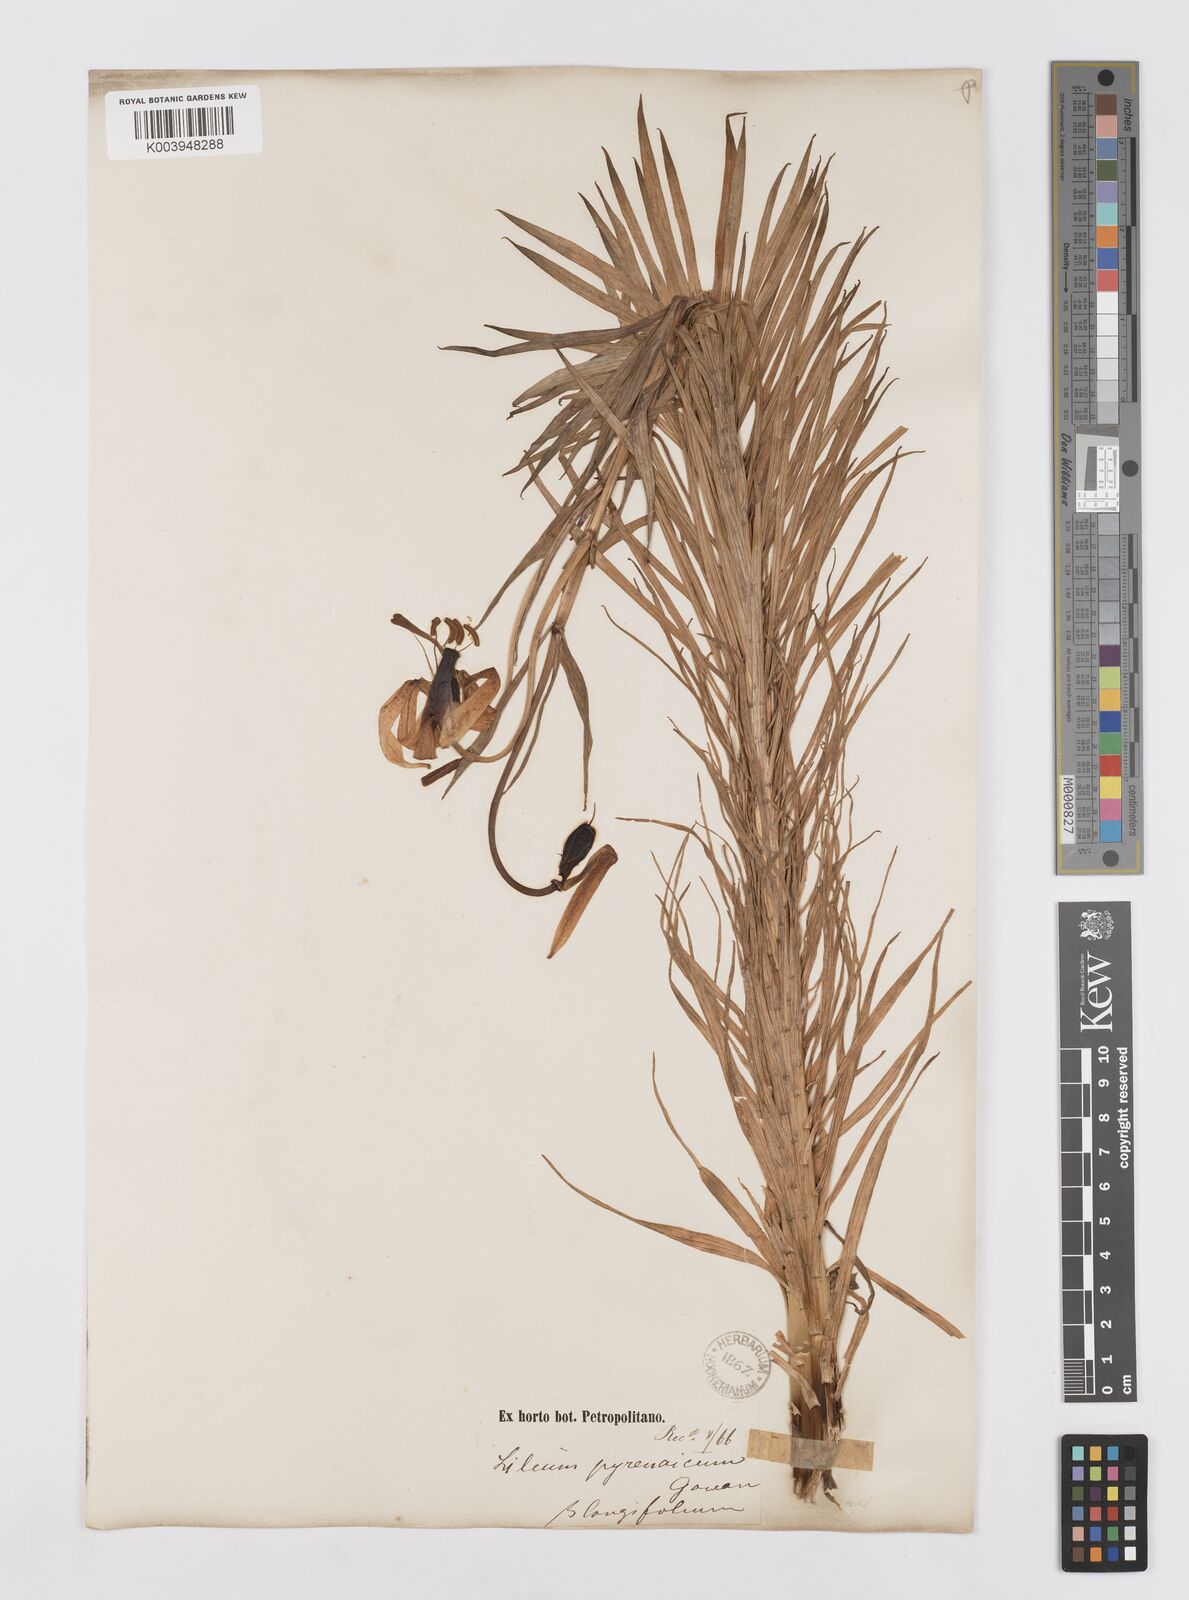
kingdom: Plantae
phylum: Tracheophyta
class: Liliopsida
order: Liliales
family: Liliaceae
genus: Lilium
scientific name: Lilium pyrenaicum
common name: Pyrenean lily
